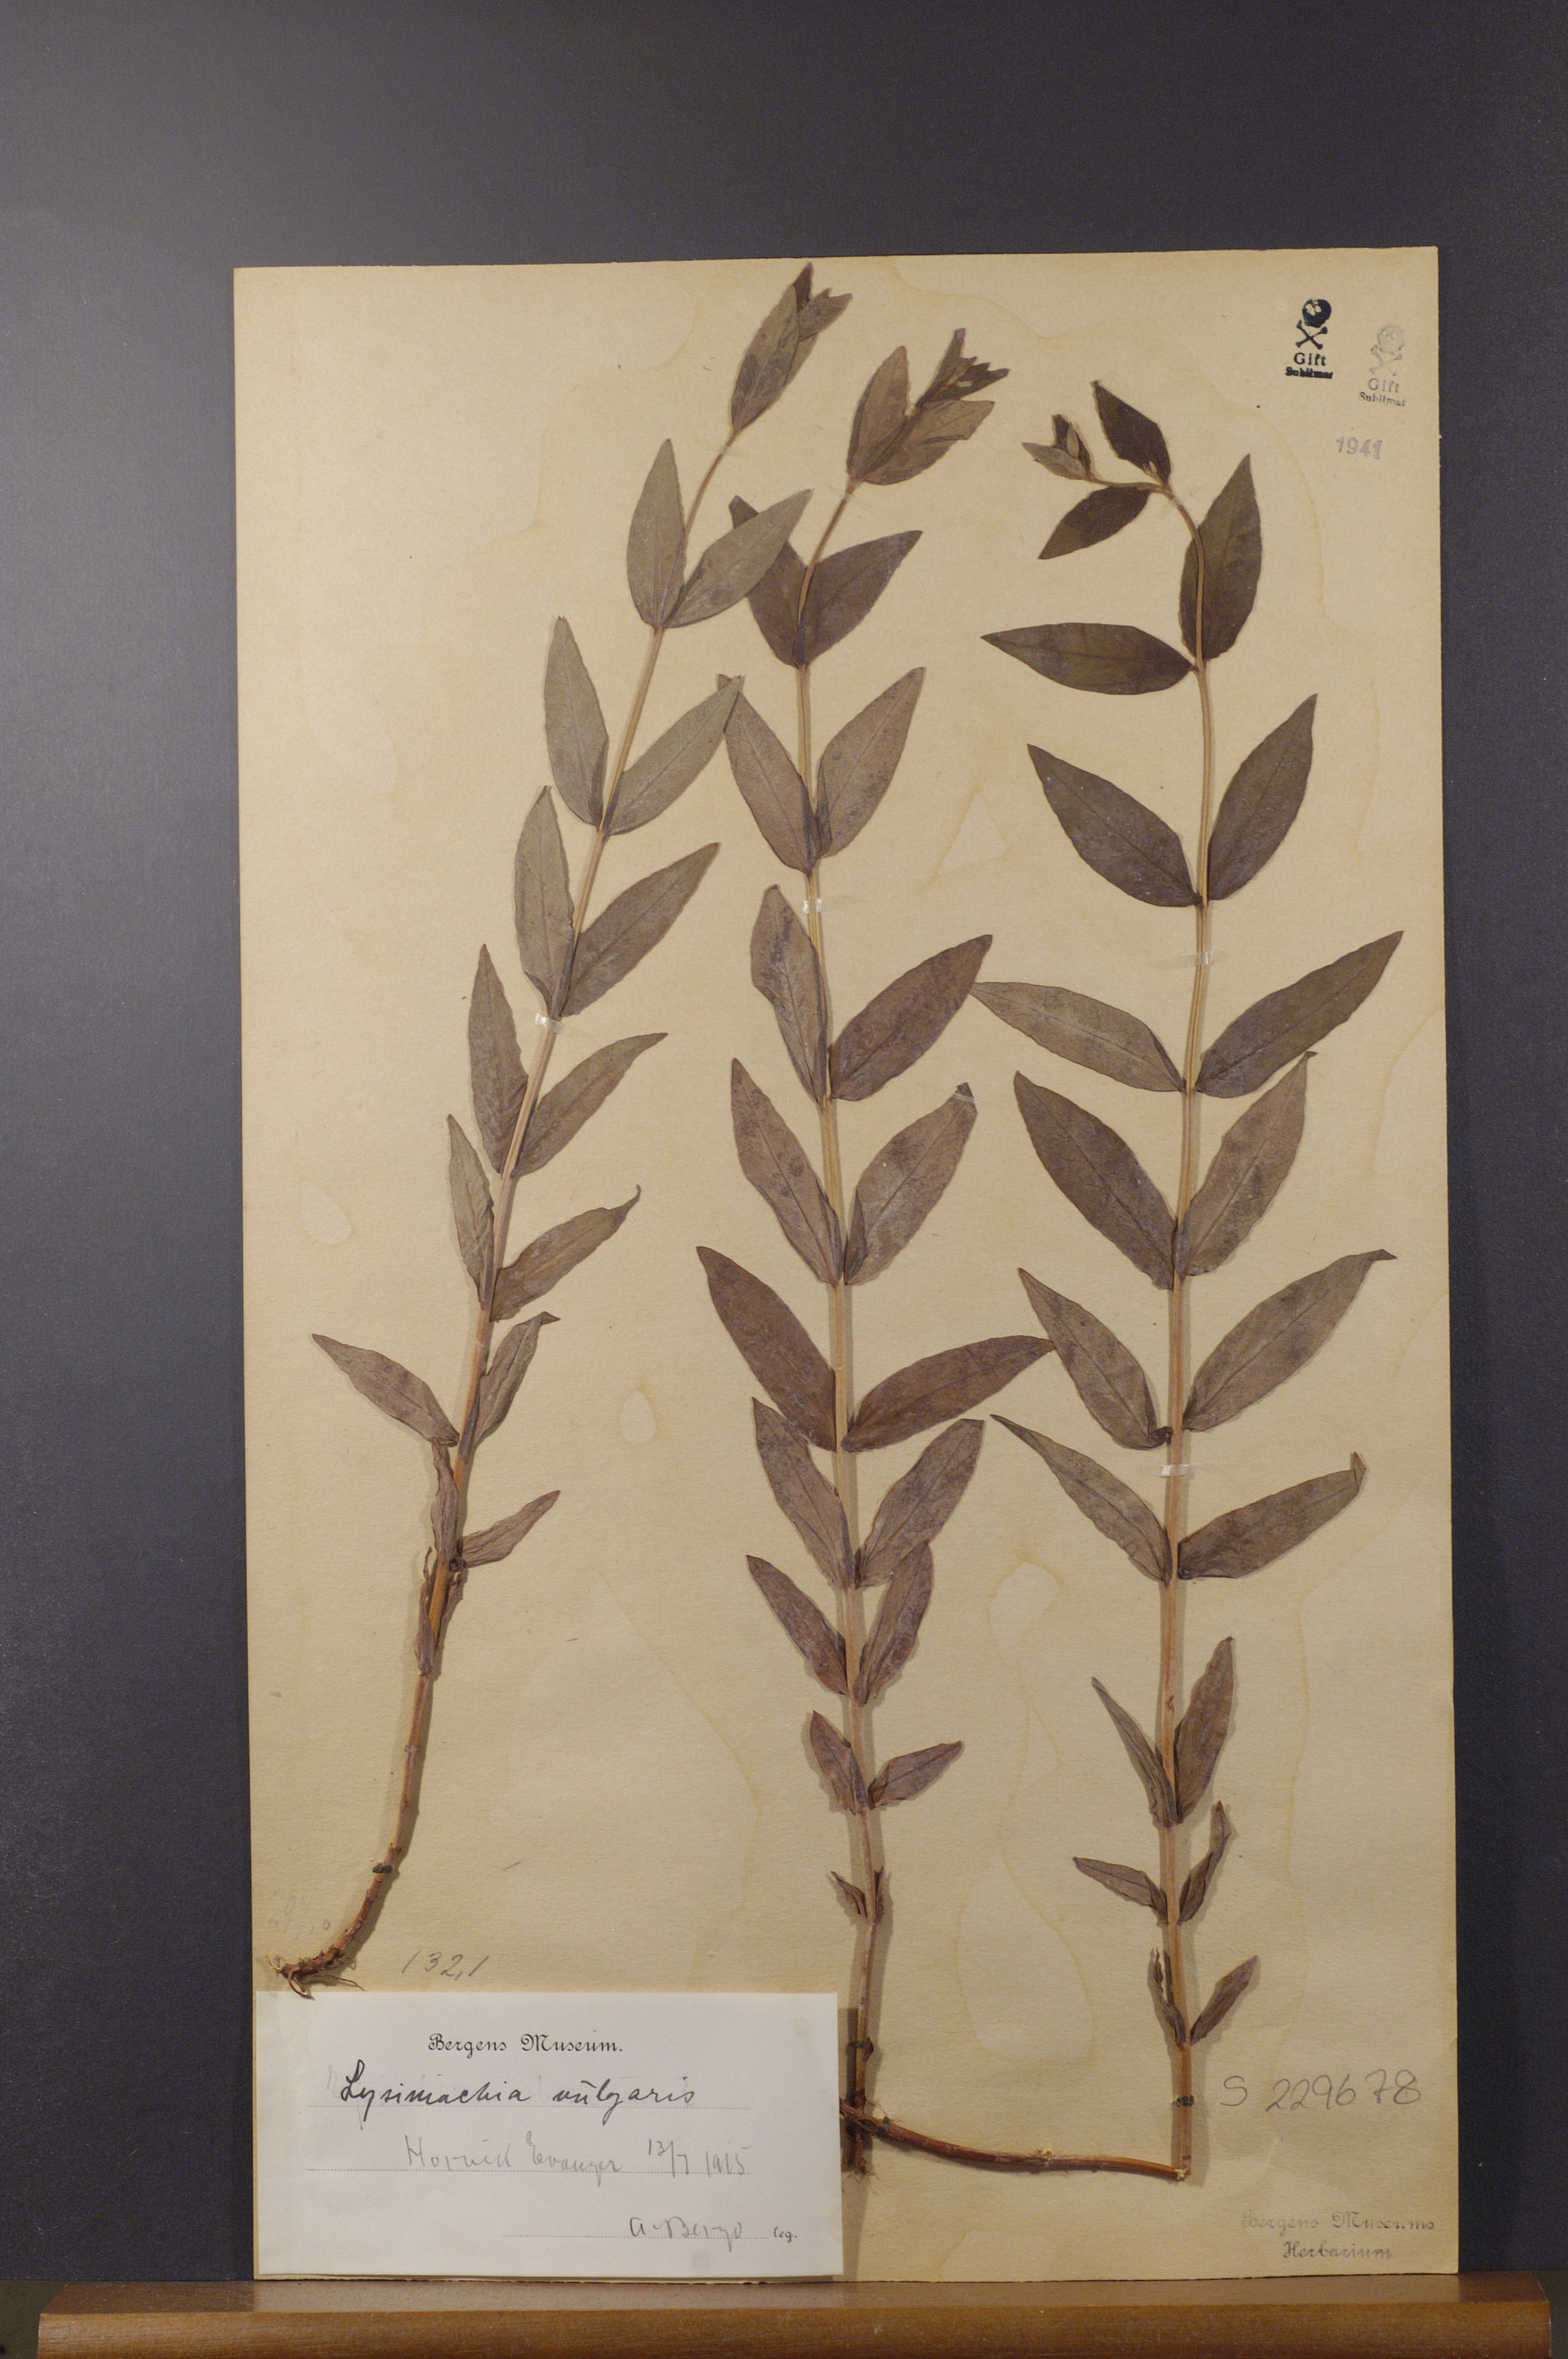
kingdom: Plantae
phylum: Tracheophyta
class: Magnoliopsida
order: Ericales
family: Primulaceae
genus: Lysimachia
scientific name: Lysimachia vulgaris
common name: Yellow loosestrife
